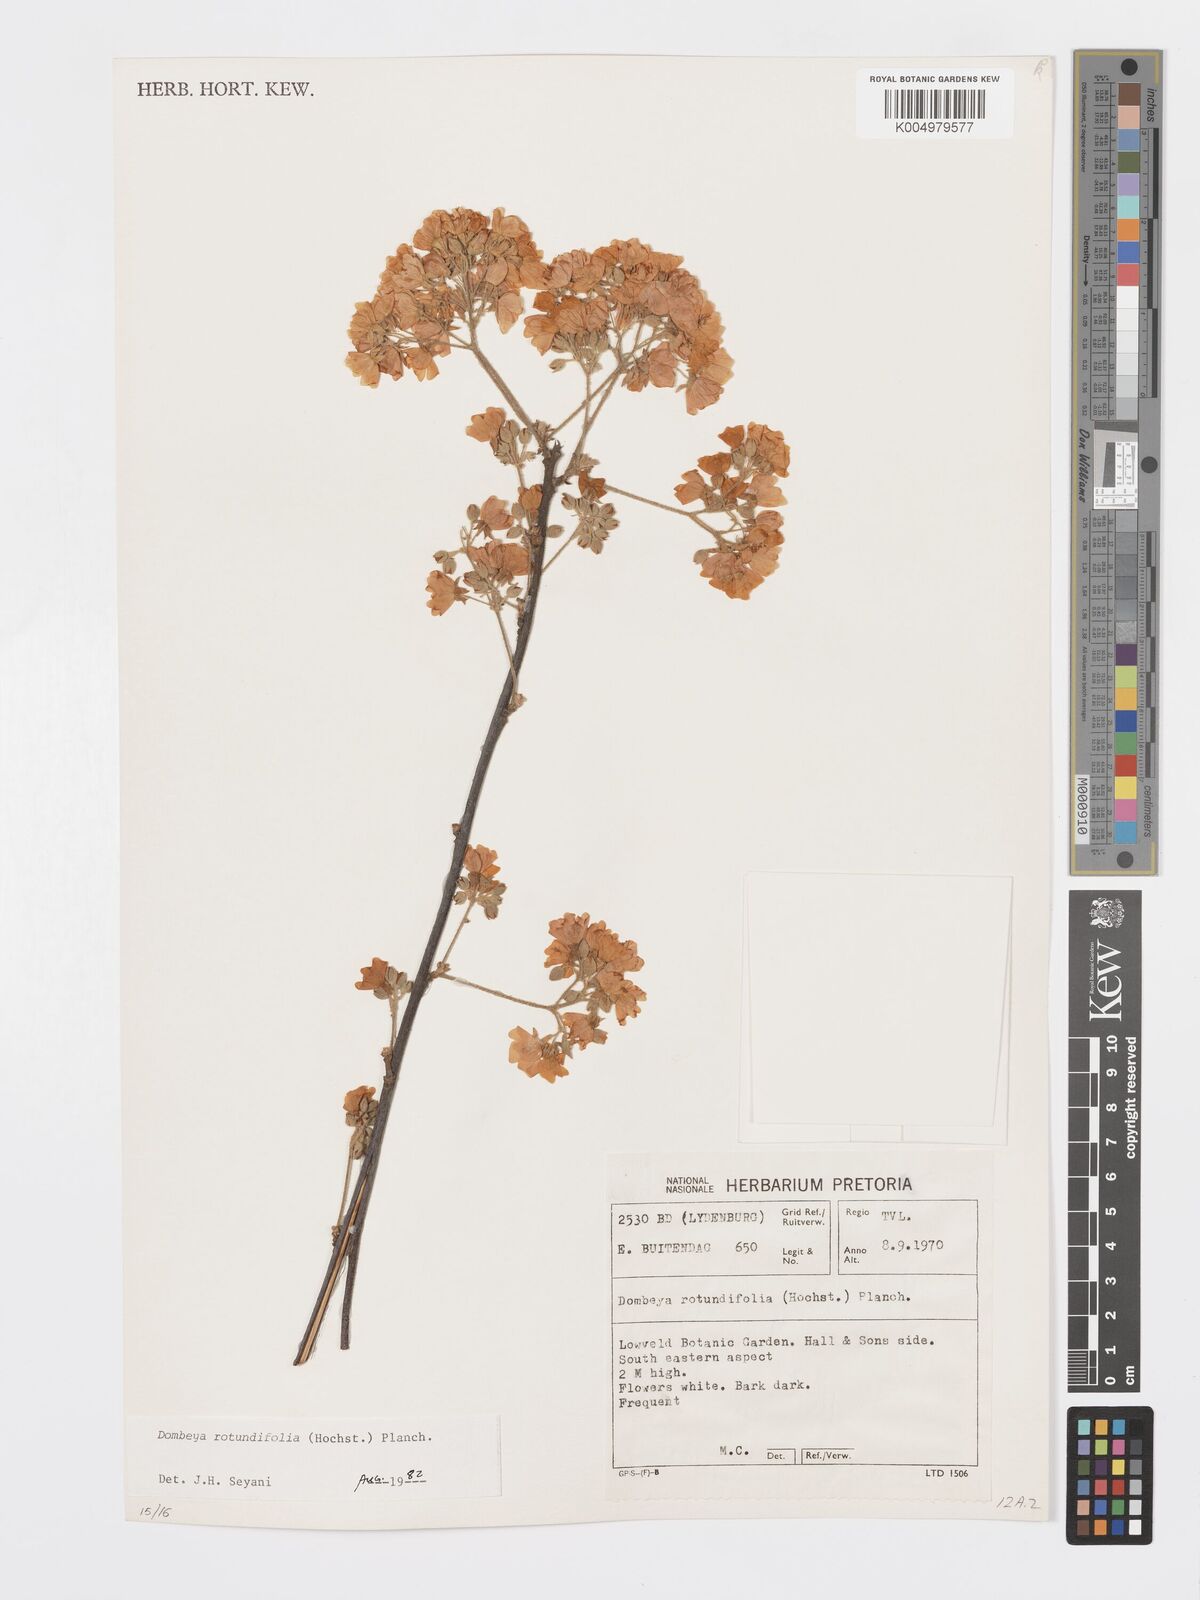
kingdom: Plantae
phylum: Tracheophyta
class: Magnoliopsida
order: Malvales
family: Malvaceae
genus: Dombeya
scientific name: Dombeya rotundifolia
